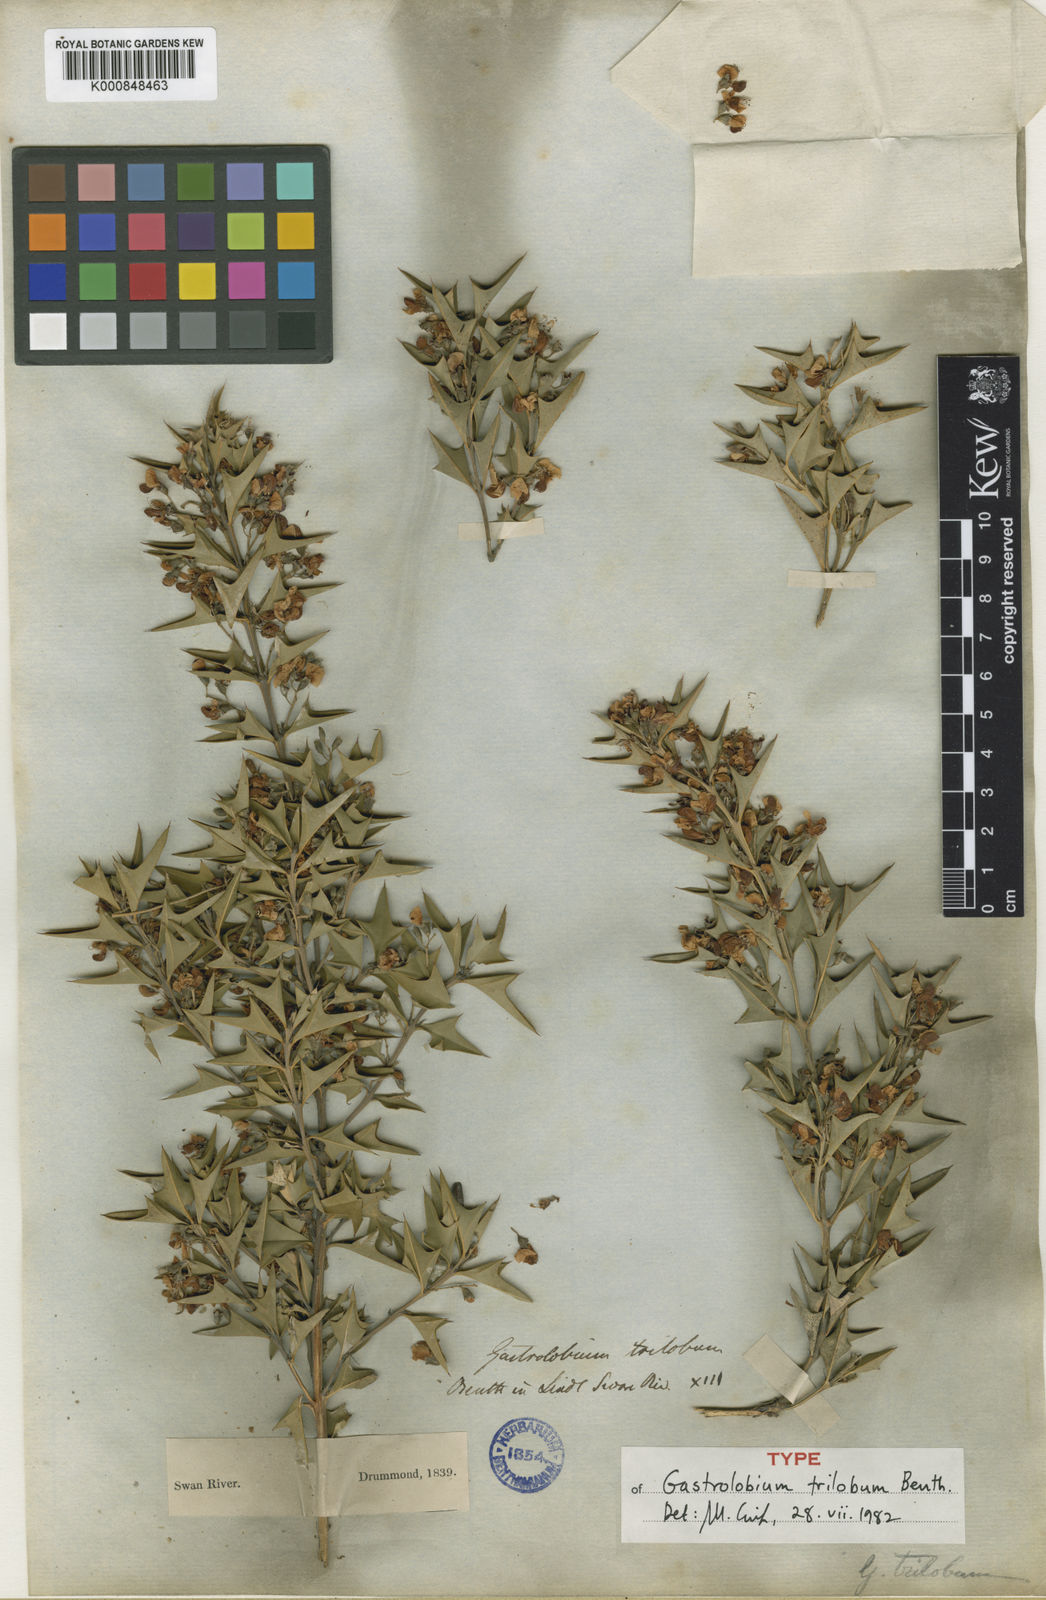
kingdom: Plantae
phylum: Tracheophyta
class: Magnoliopsida
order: Fabales
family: Fabaceae
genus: Gastrolobium
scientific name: Gastrolobium trilobum
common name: Bullock poison
